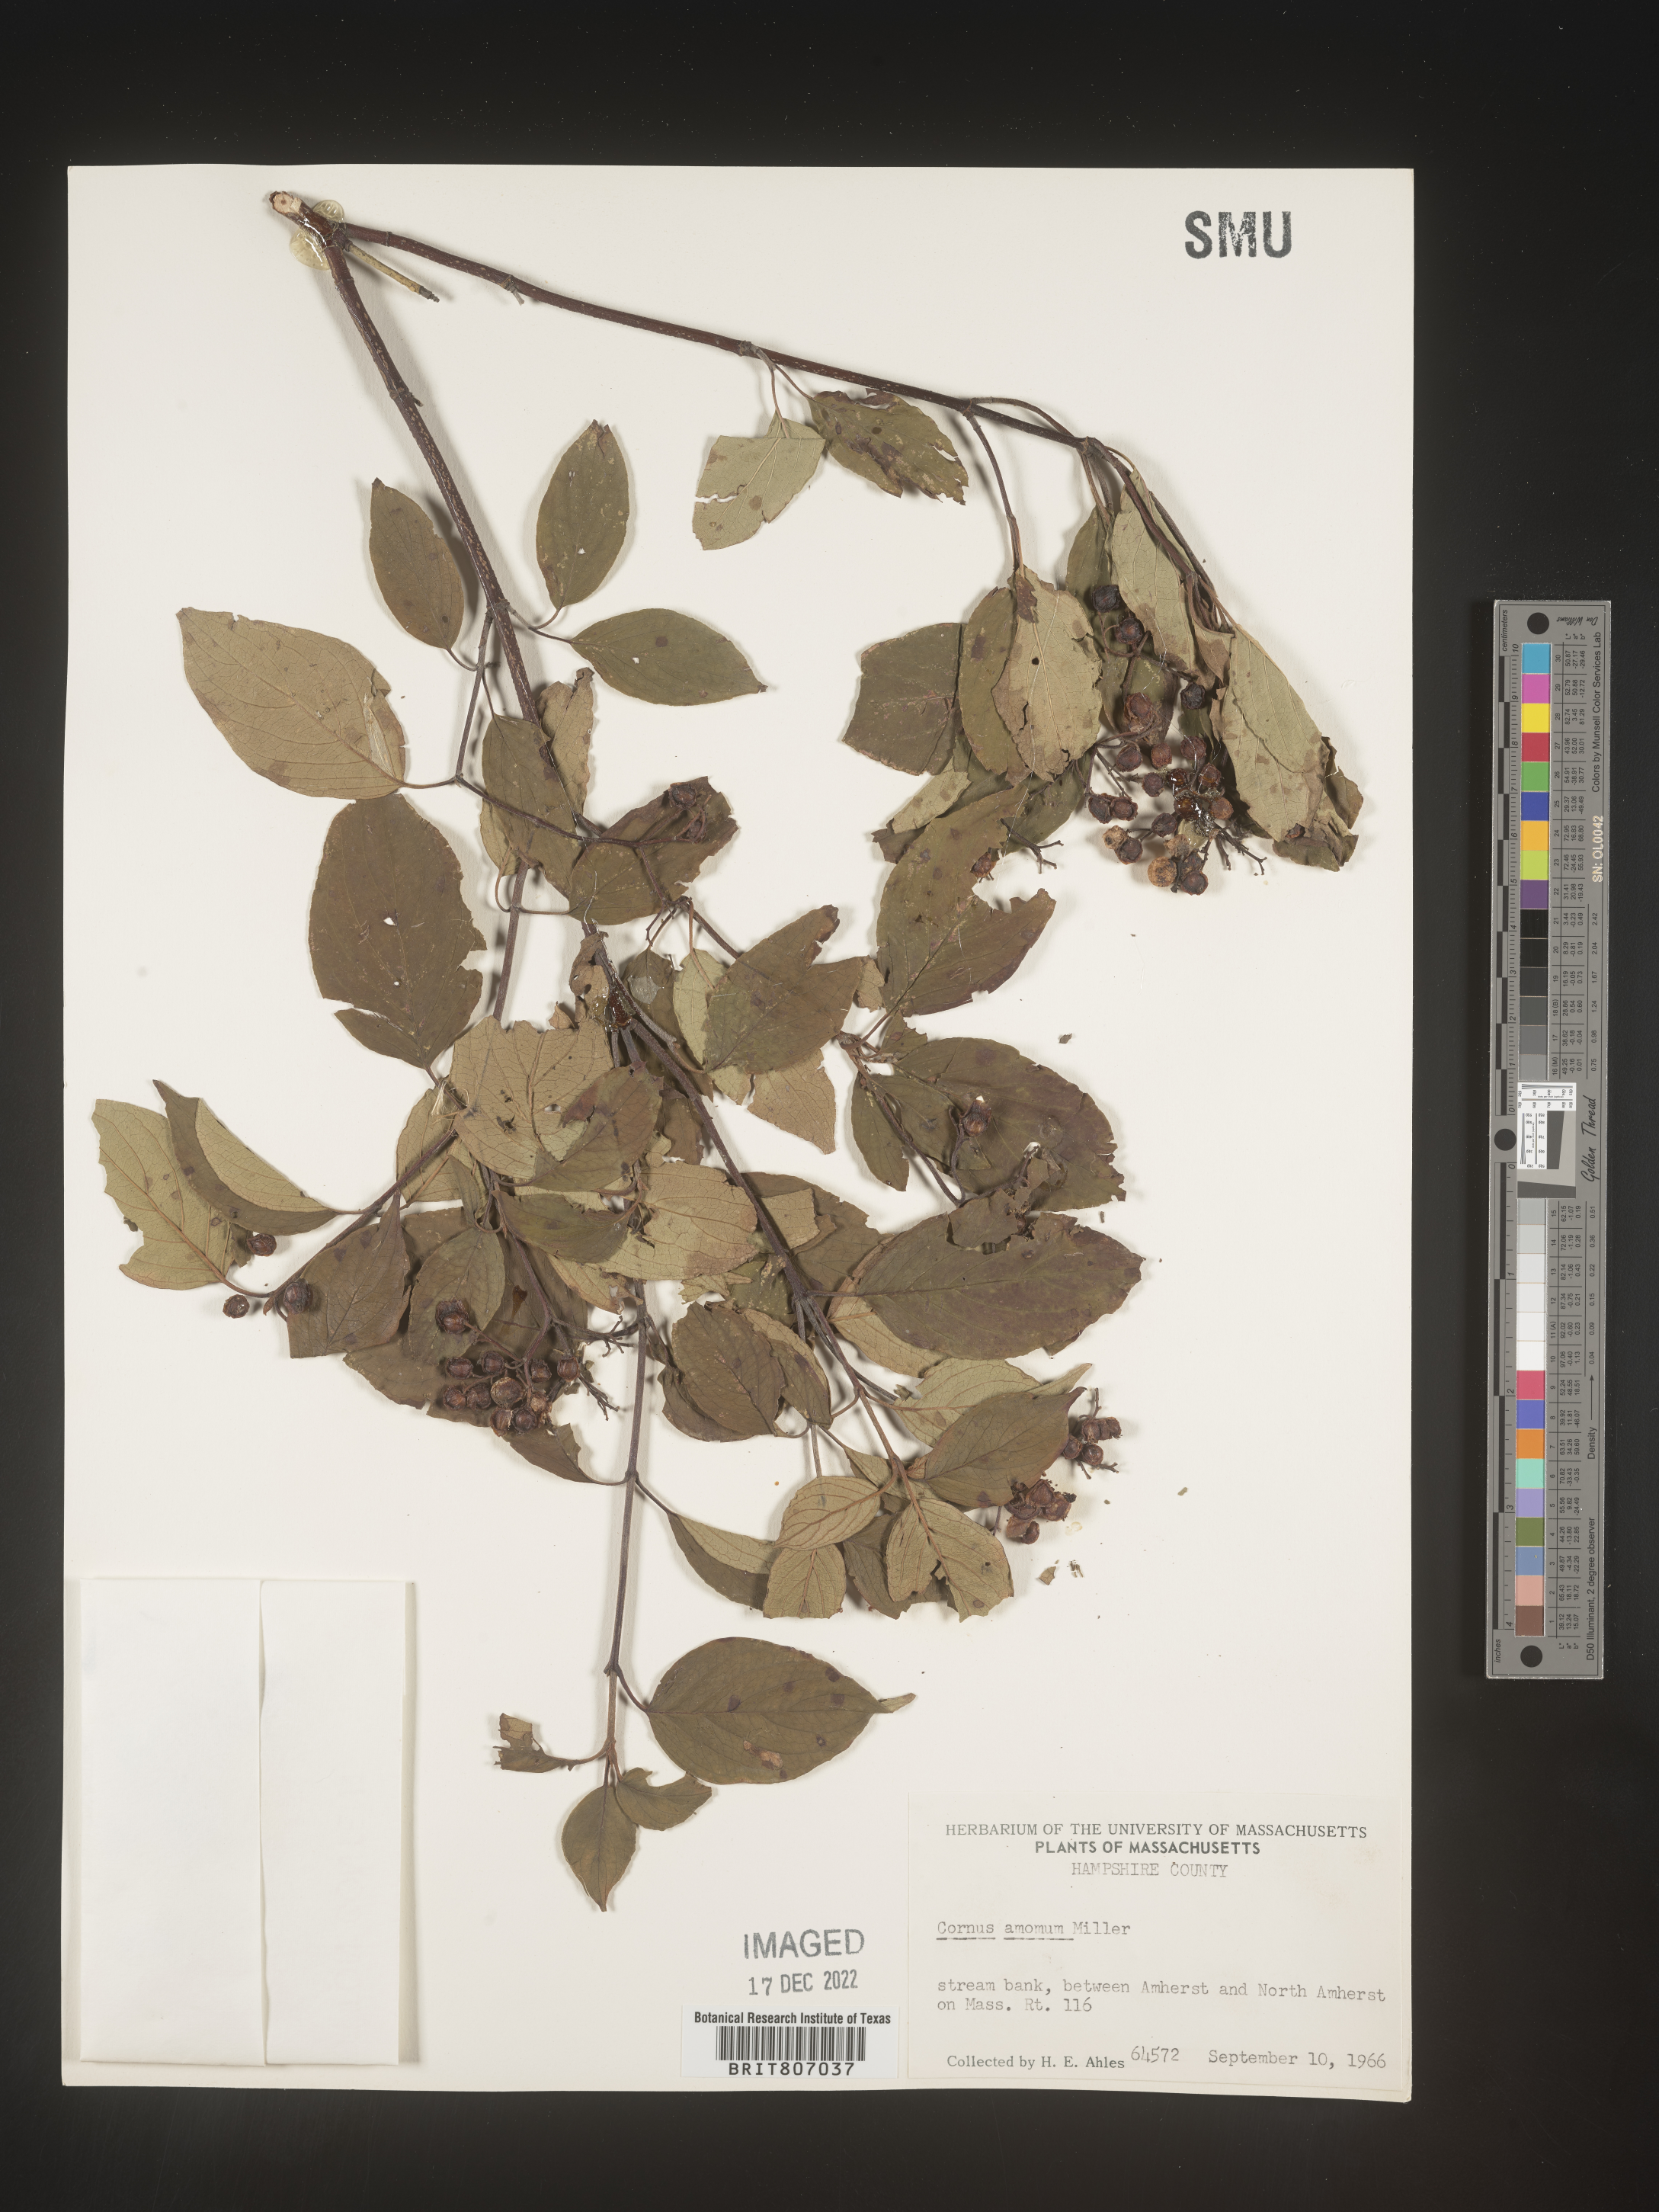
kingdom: Plantae
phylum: Tracheophyta
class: Magnoliopsida
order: Cornales
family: Cornaceae
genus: Cornus
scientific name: Cornus amomum
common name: Silky dogwood
